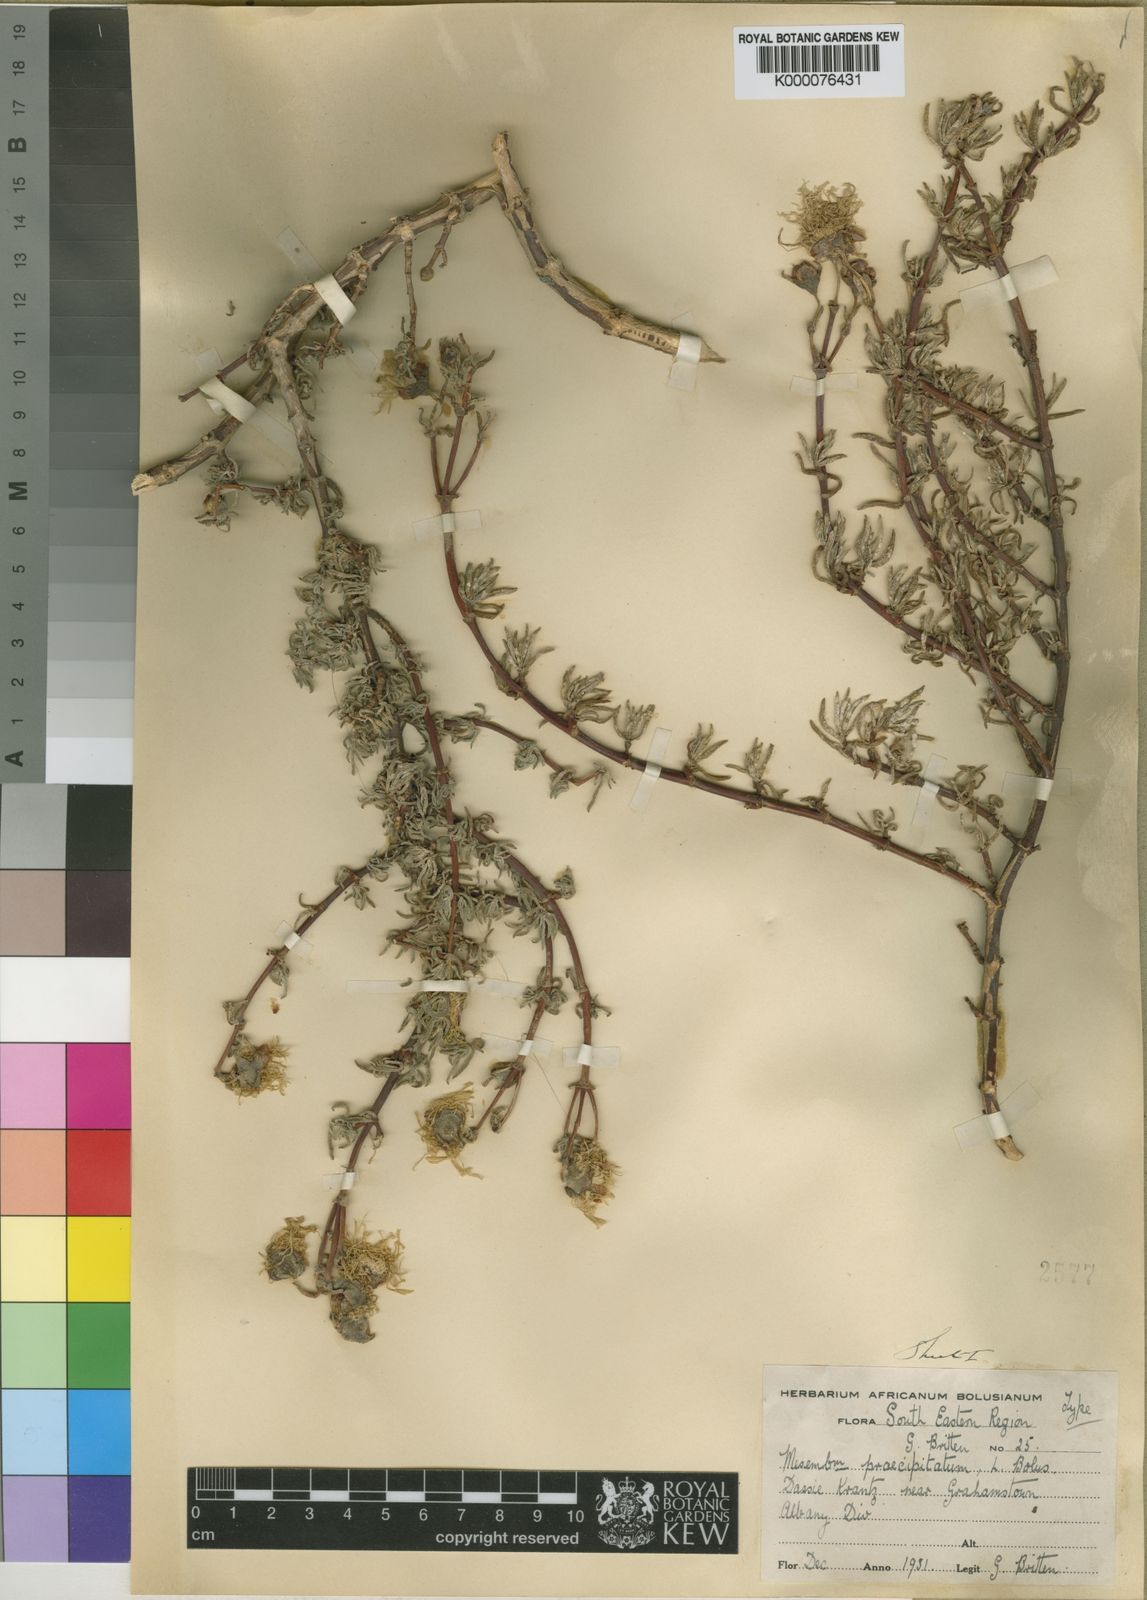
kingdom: Plantae
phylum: Tracheophyta
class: Magnoliopsida
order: Caryophyllales
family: Aizoaceae
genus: Lampranthus
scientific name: Lampranthus praecipitatus
